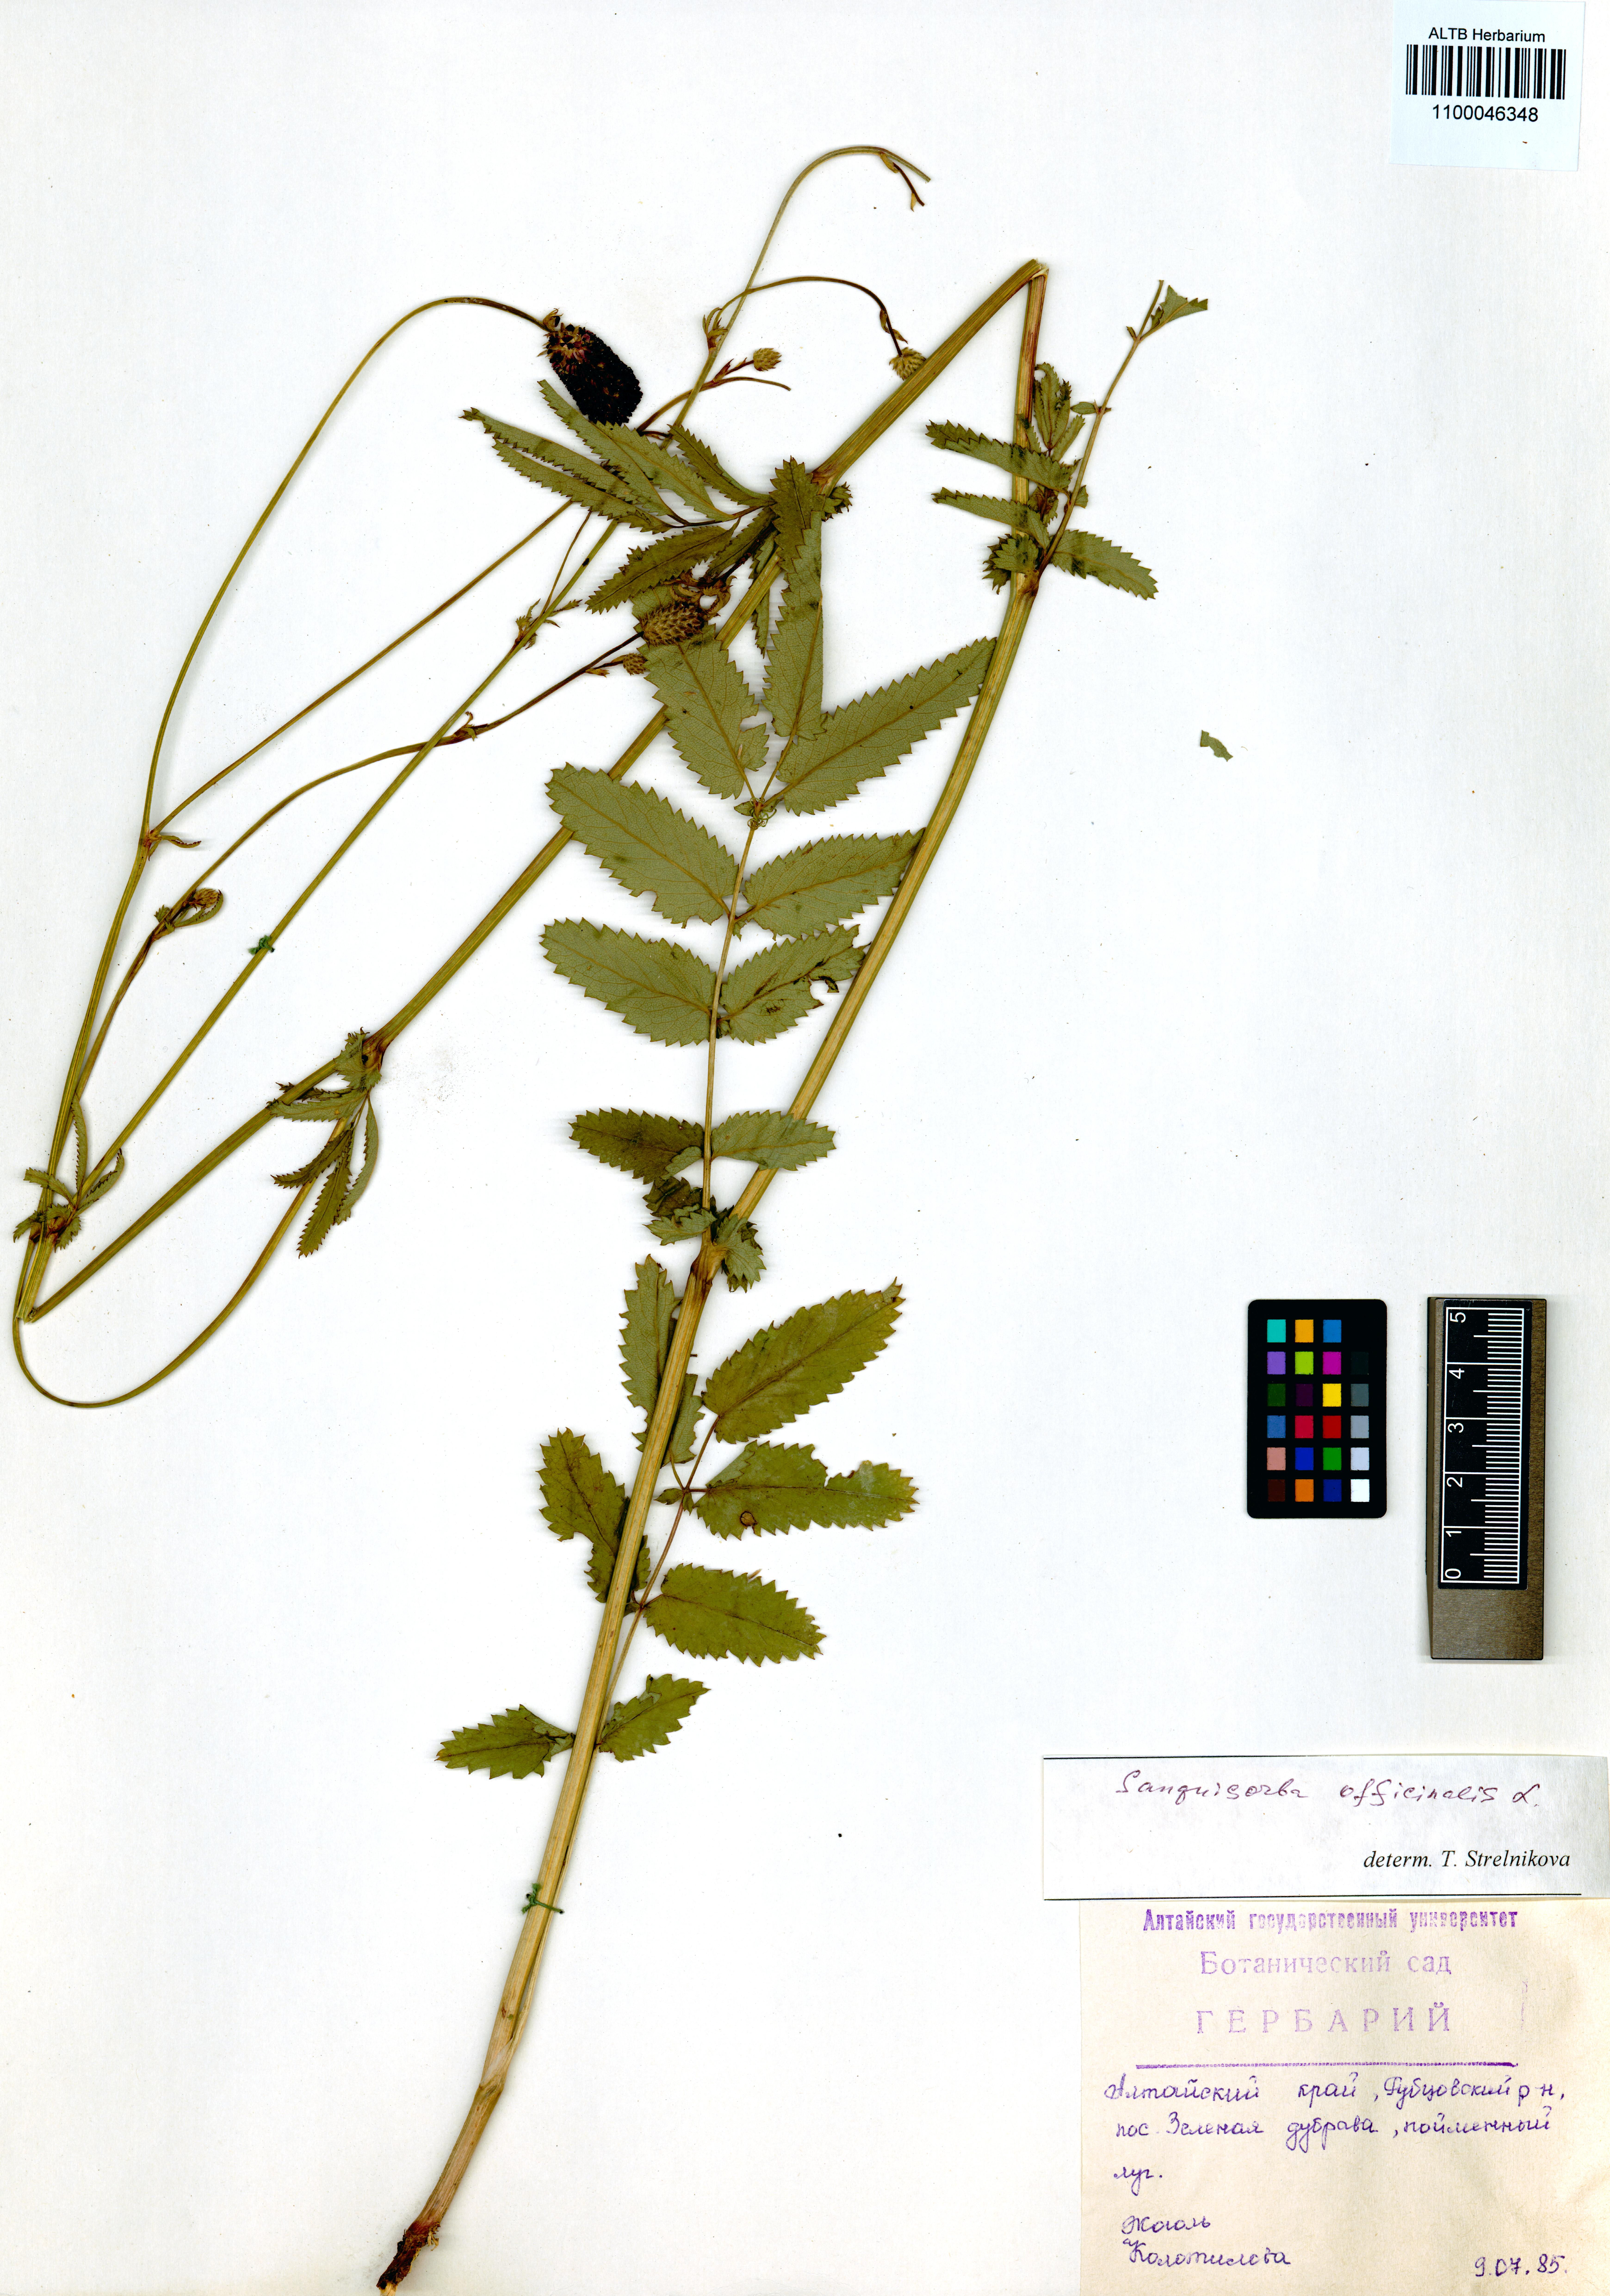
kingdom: Plantae
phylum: Tracheophyta
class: Magnoliopsida
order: Rosales
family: Rosaceae
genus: Sanguisorba
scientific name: Sanguisorba officinalis
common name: Great burnet
